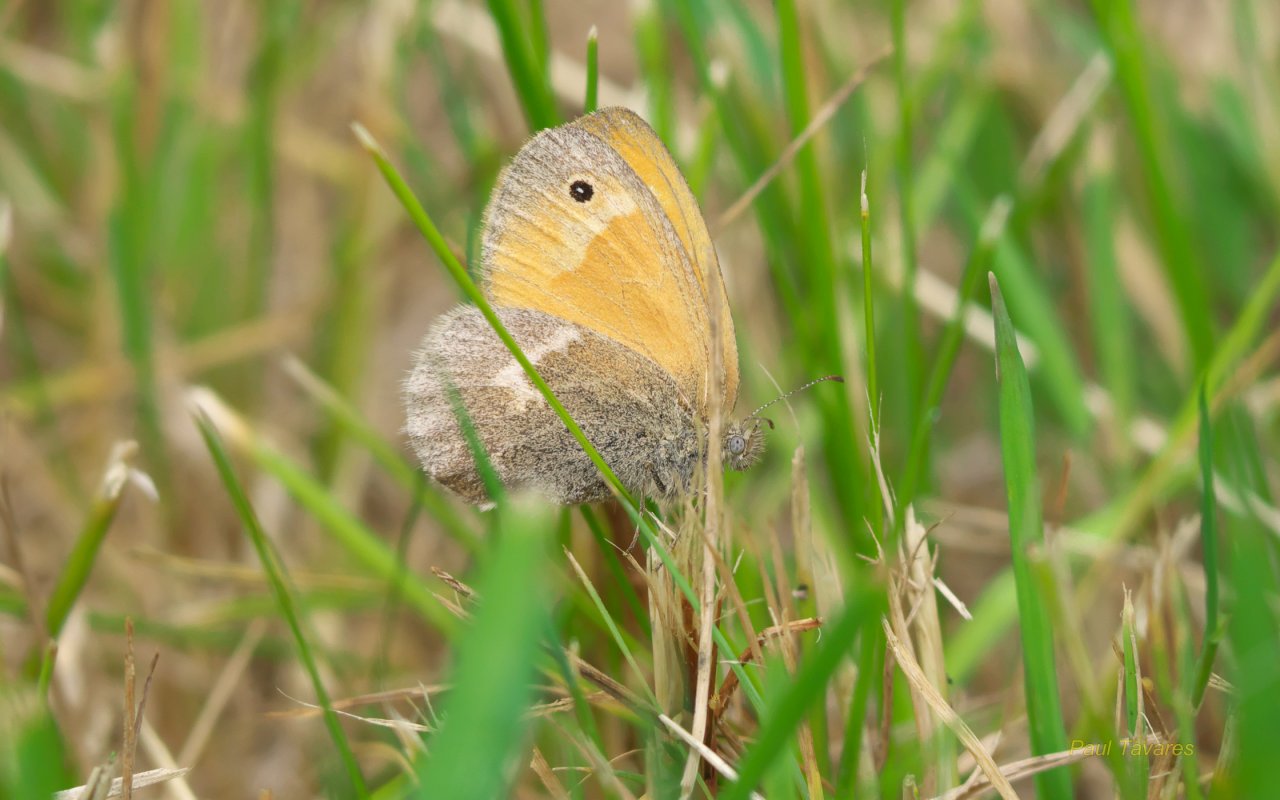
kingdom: Animalia
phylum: Arthropoda
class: Insecta
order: Lepidoptera
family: Nymphalidae
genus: Coenonympha
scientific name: Coenonympha tullia
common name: Large Heath
